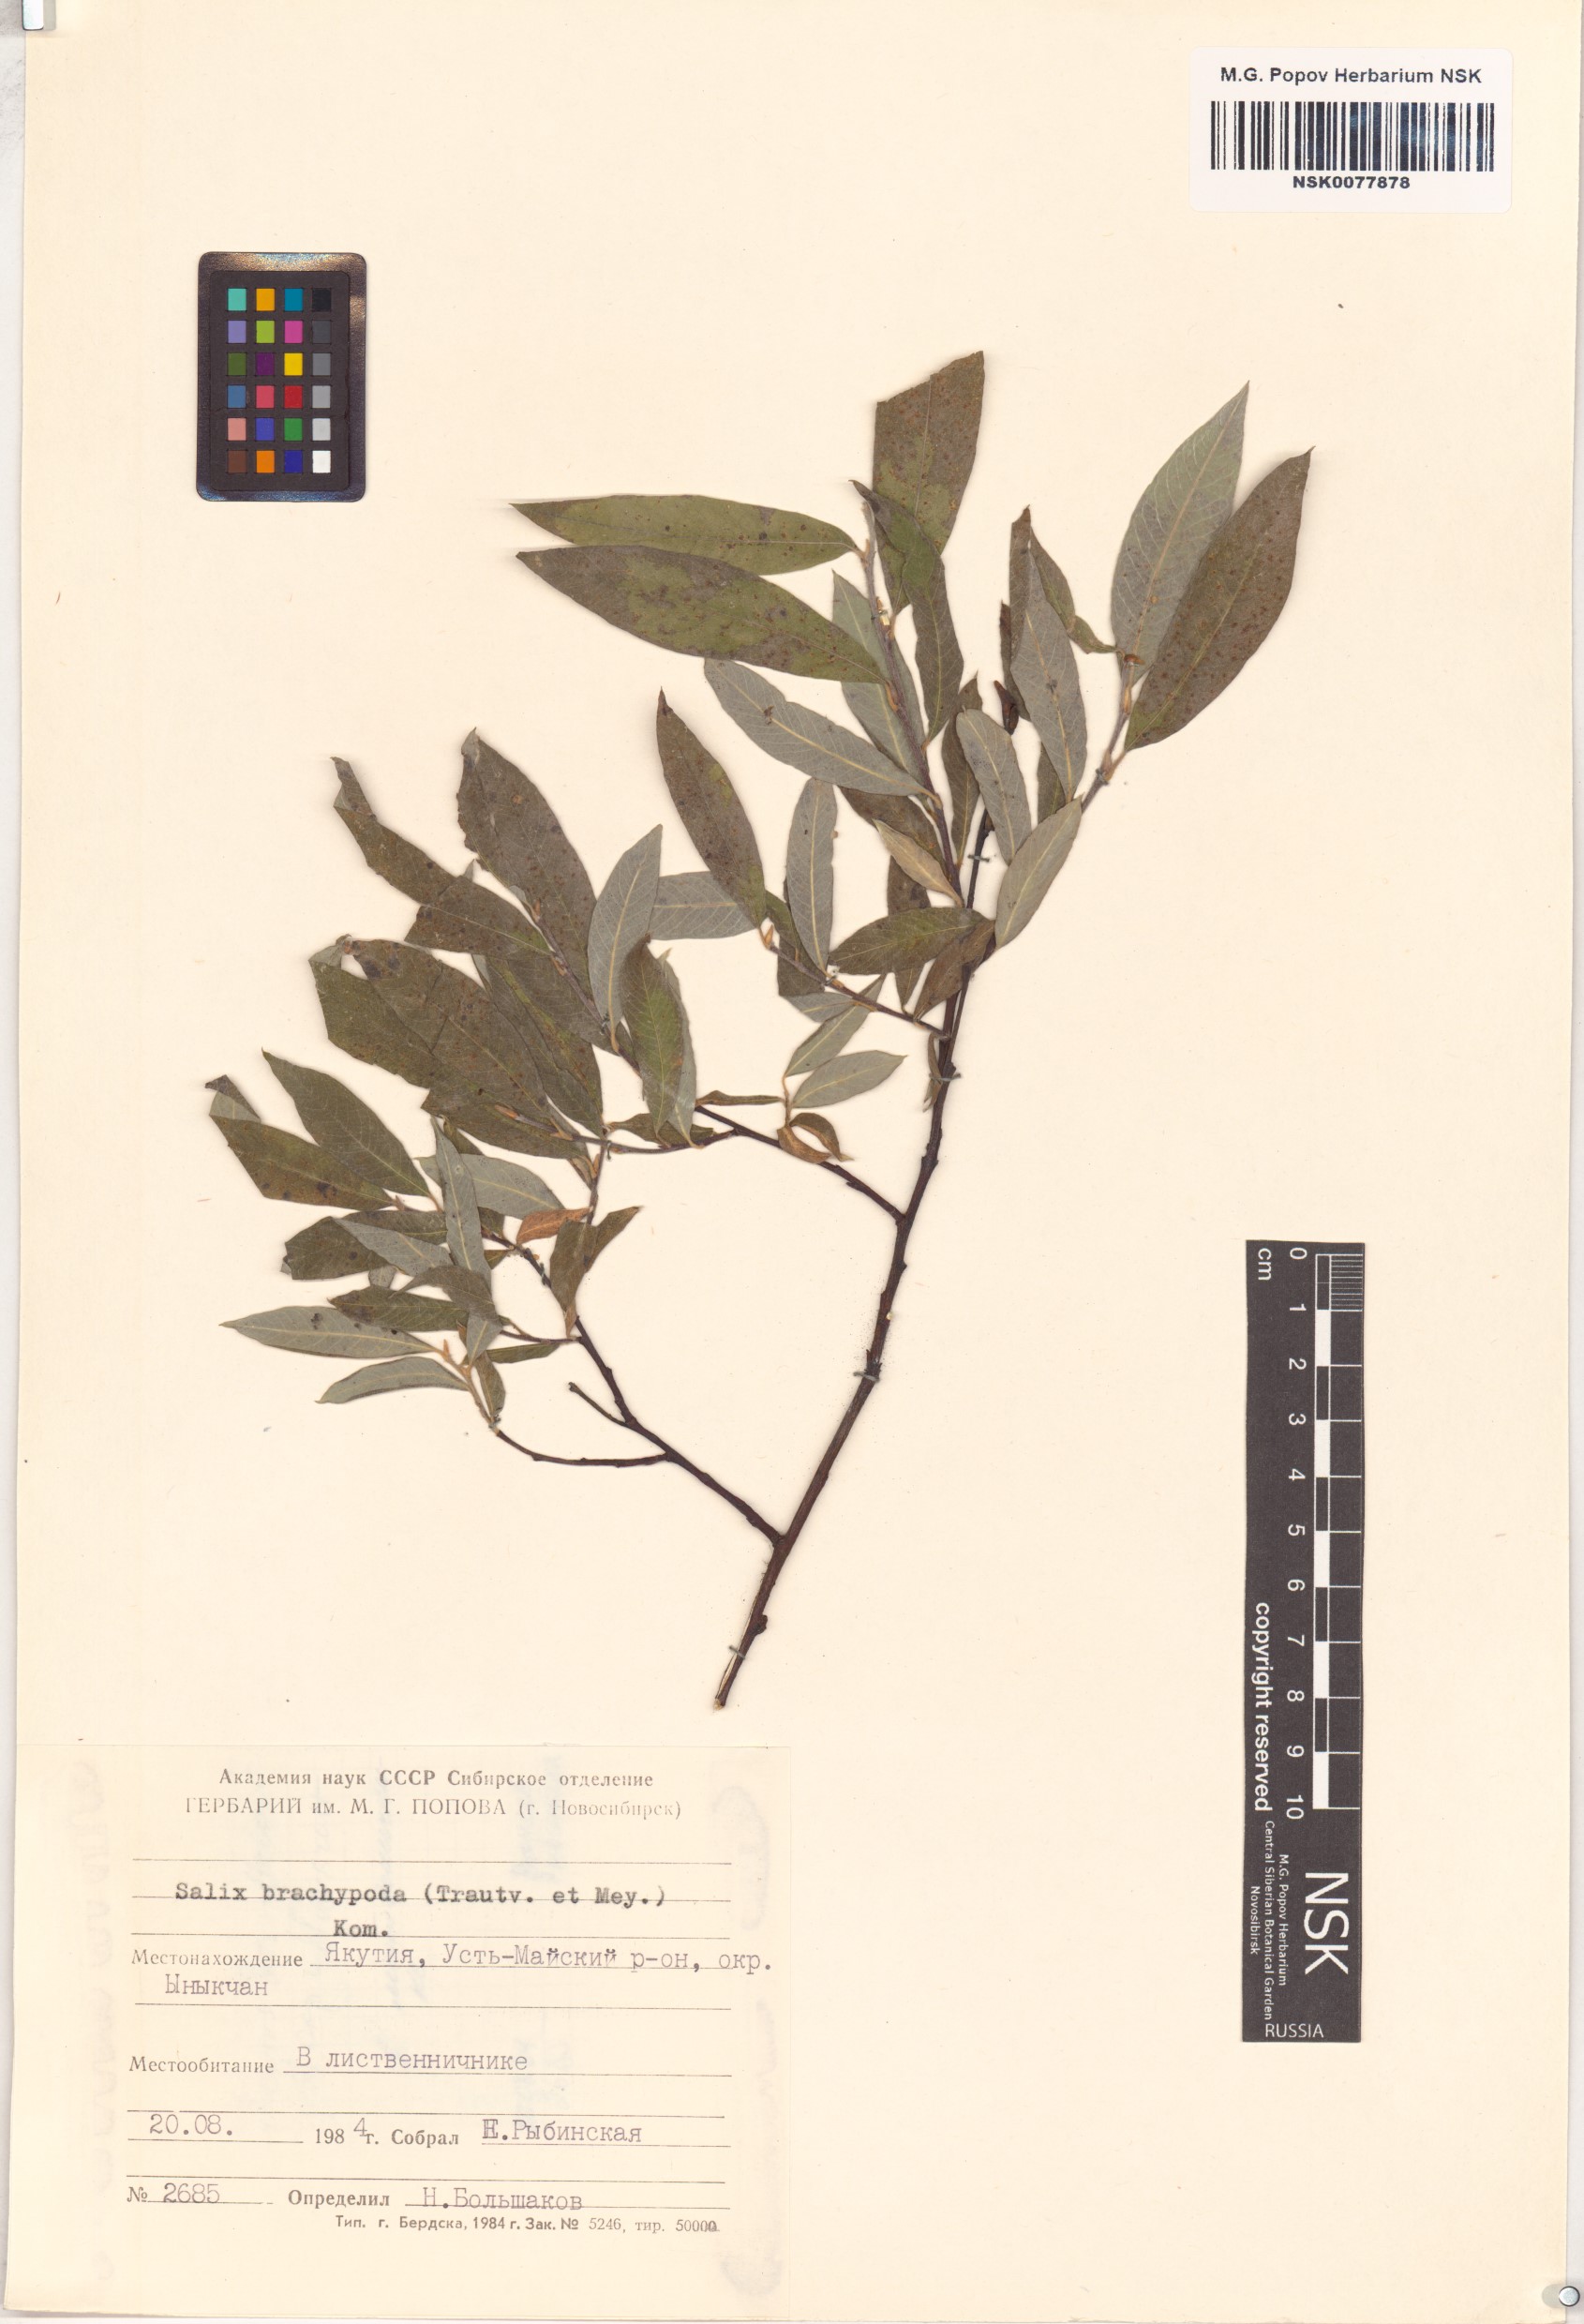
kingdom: Plantae
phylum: Tracheophyta
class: Magnoliopsida
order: Malpighiales
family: Salicaceae
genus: Salix
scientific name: Salix brachypoda
